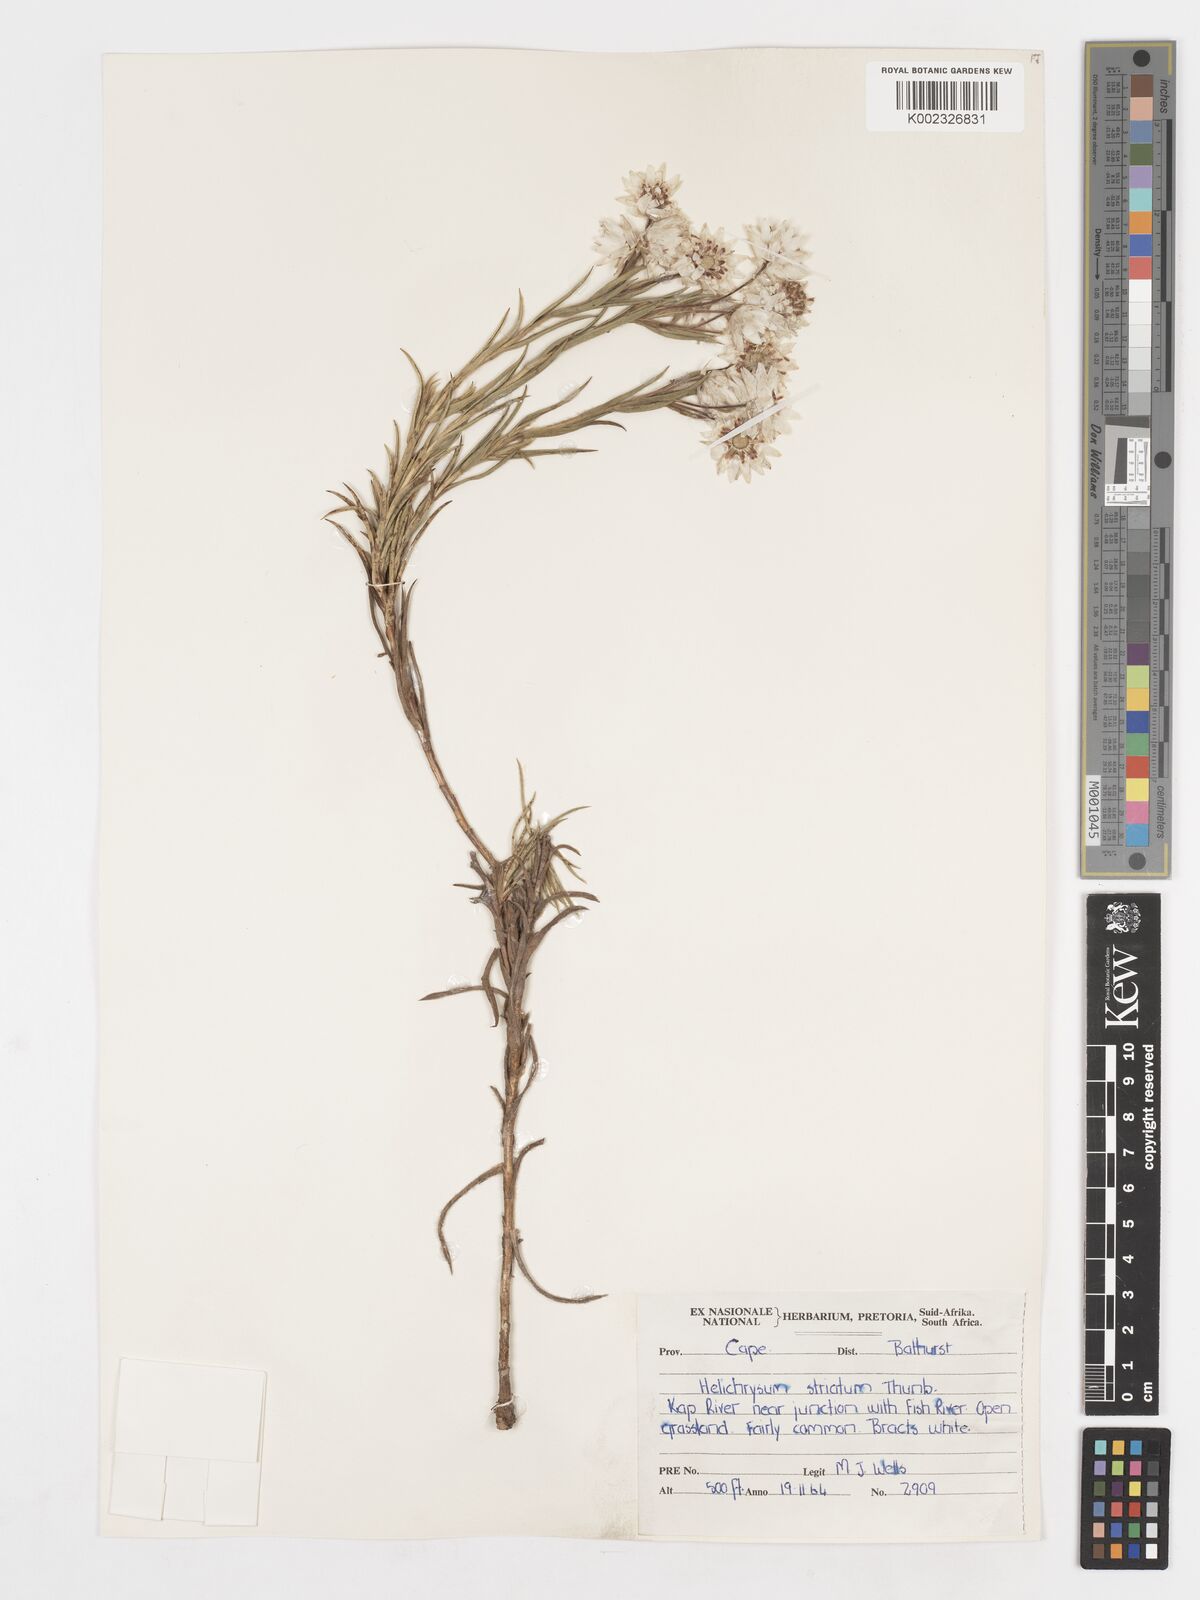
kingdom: Plantae
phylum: Tracheophyta
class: Magnoliopsida
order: Asterales
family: Asteraceae
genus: Achyranthemum
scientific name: Achyranthemum striatum
